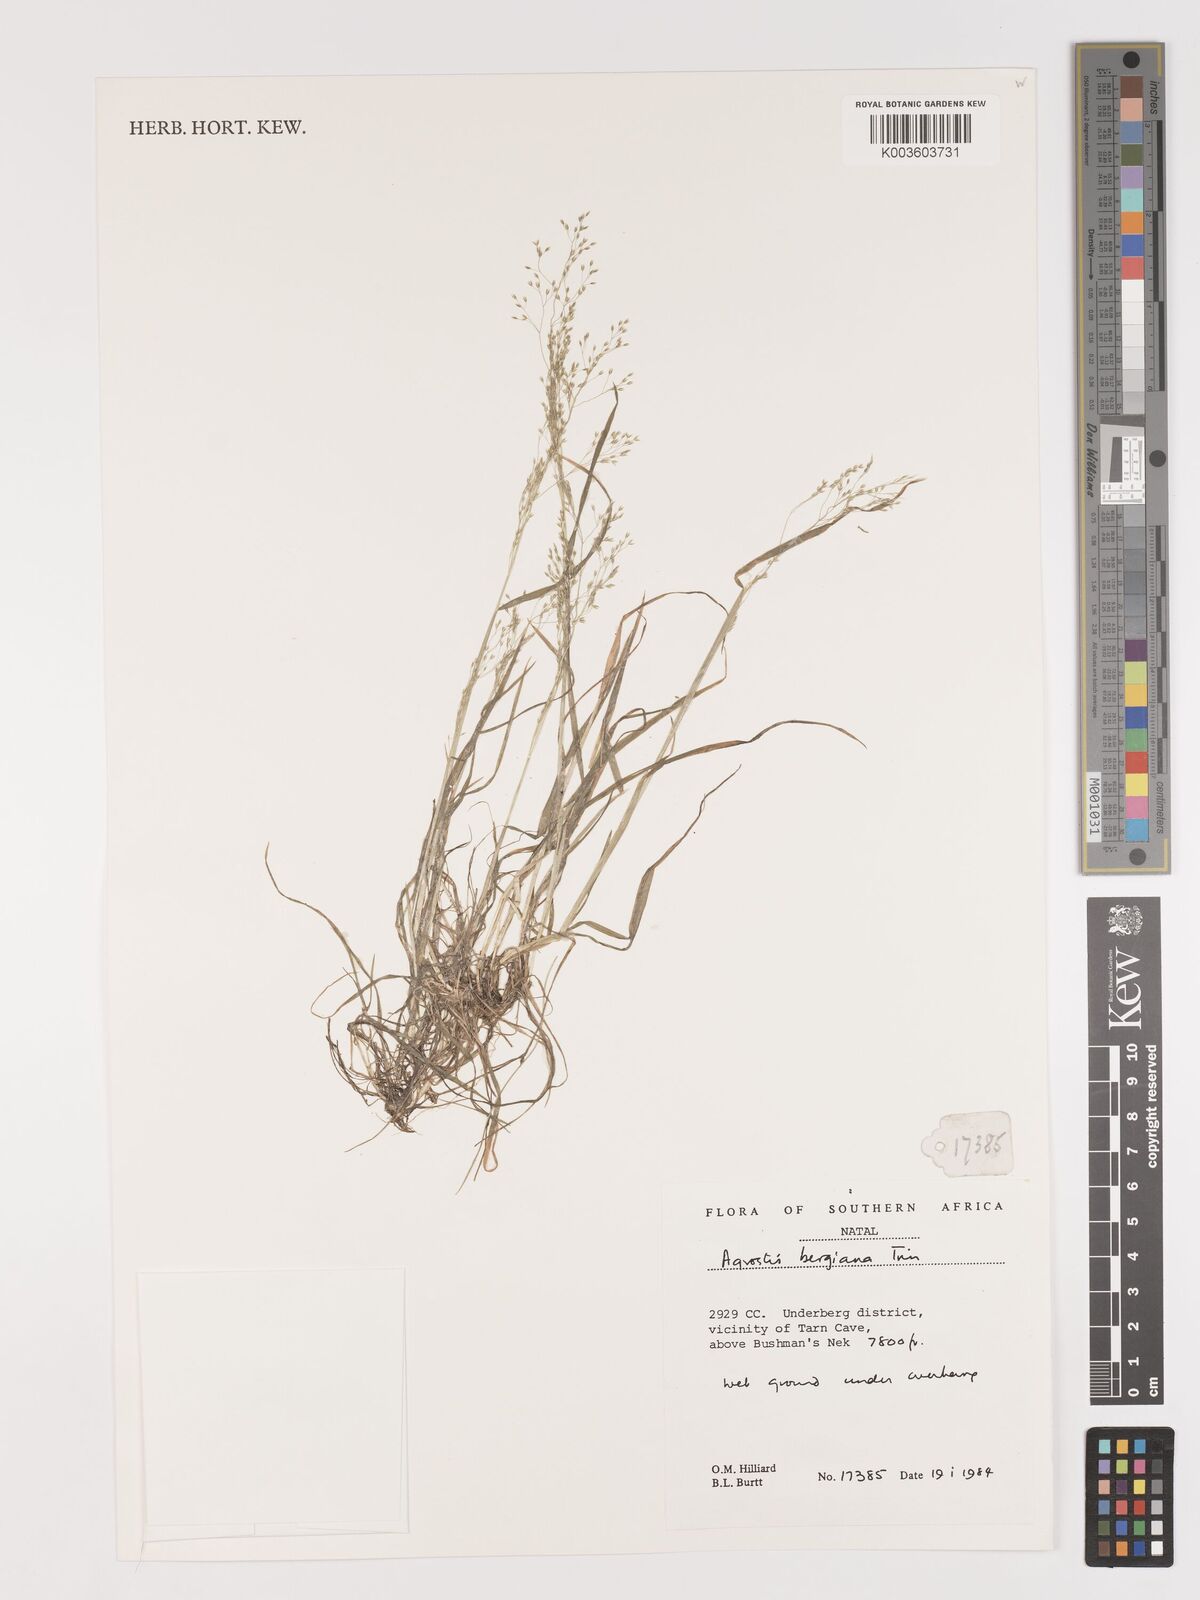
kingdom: Plantae
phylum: Tracheophyta
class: Liliopsida
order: Poales
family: Poaceae
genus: Agrostis
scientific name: Agrostis bergiana
